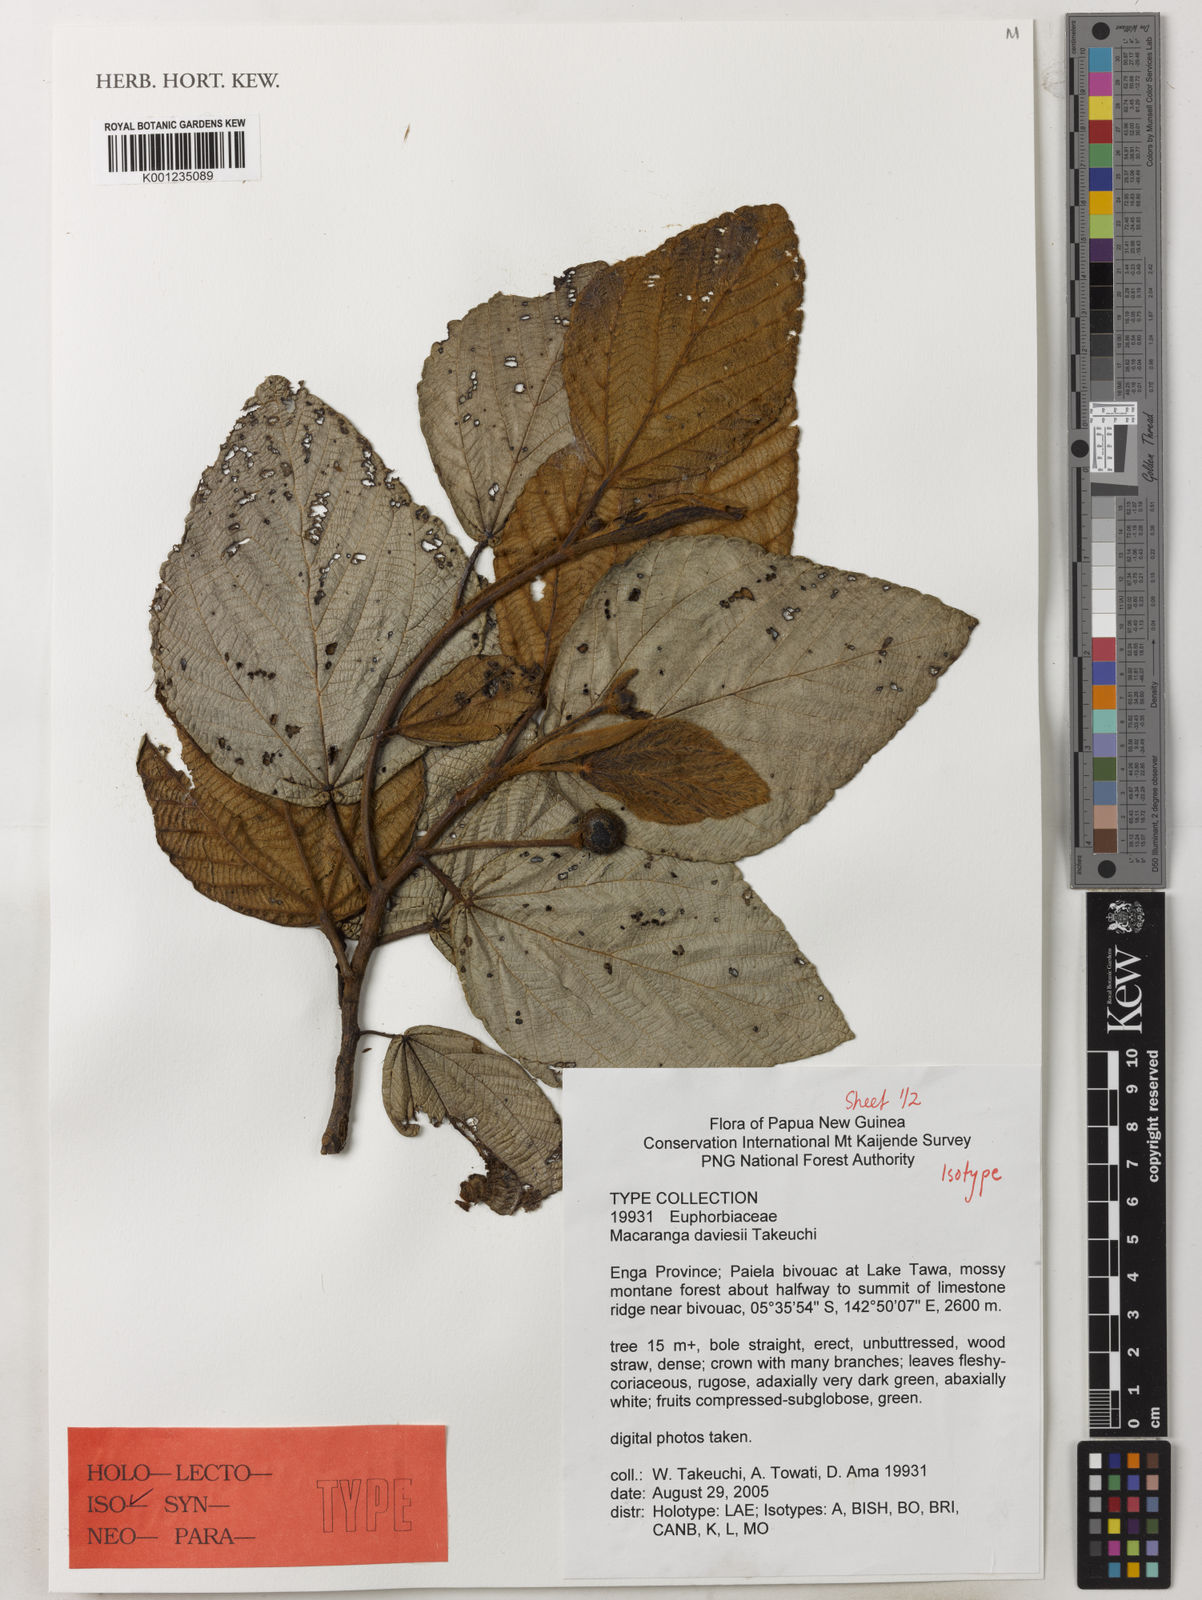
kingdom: Plantae
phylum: Tracheophyta
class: Magnoliopsida
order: Malpighiales
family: Euphorbiaceae
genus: Macaranga
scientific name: Macaranga daviesii
